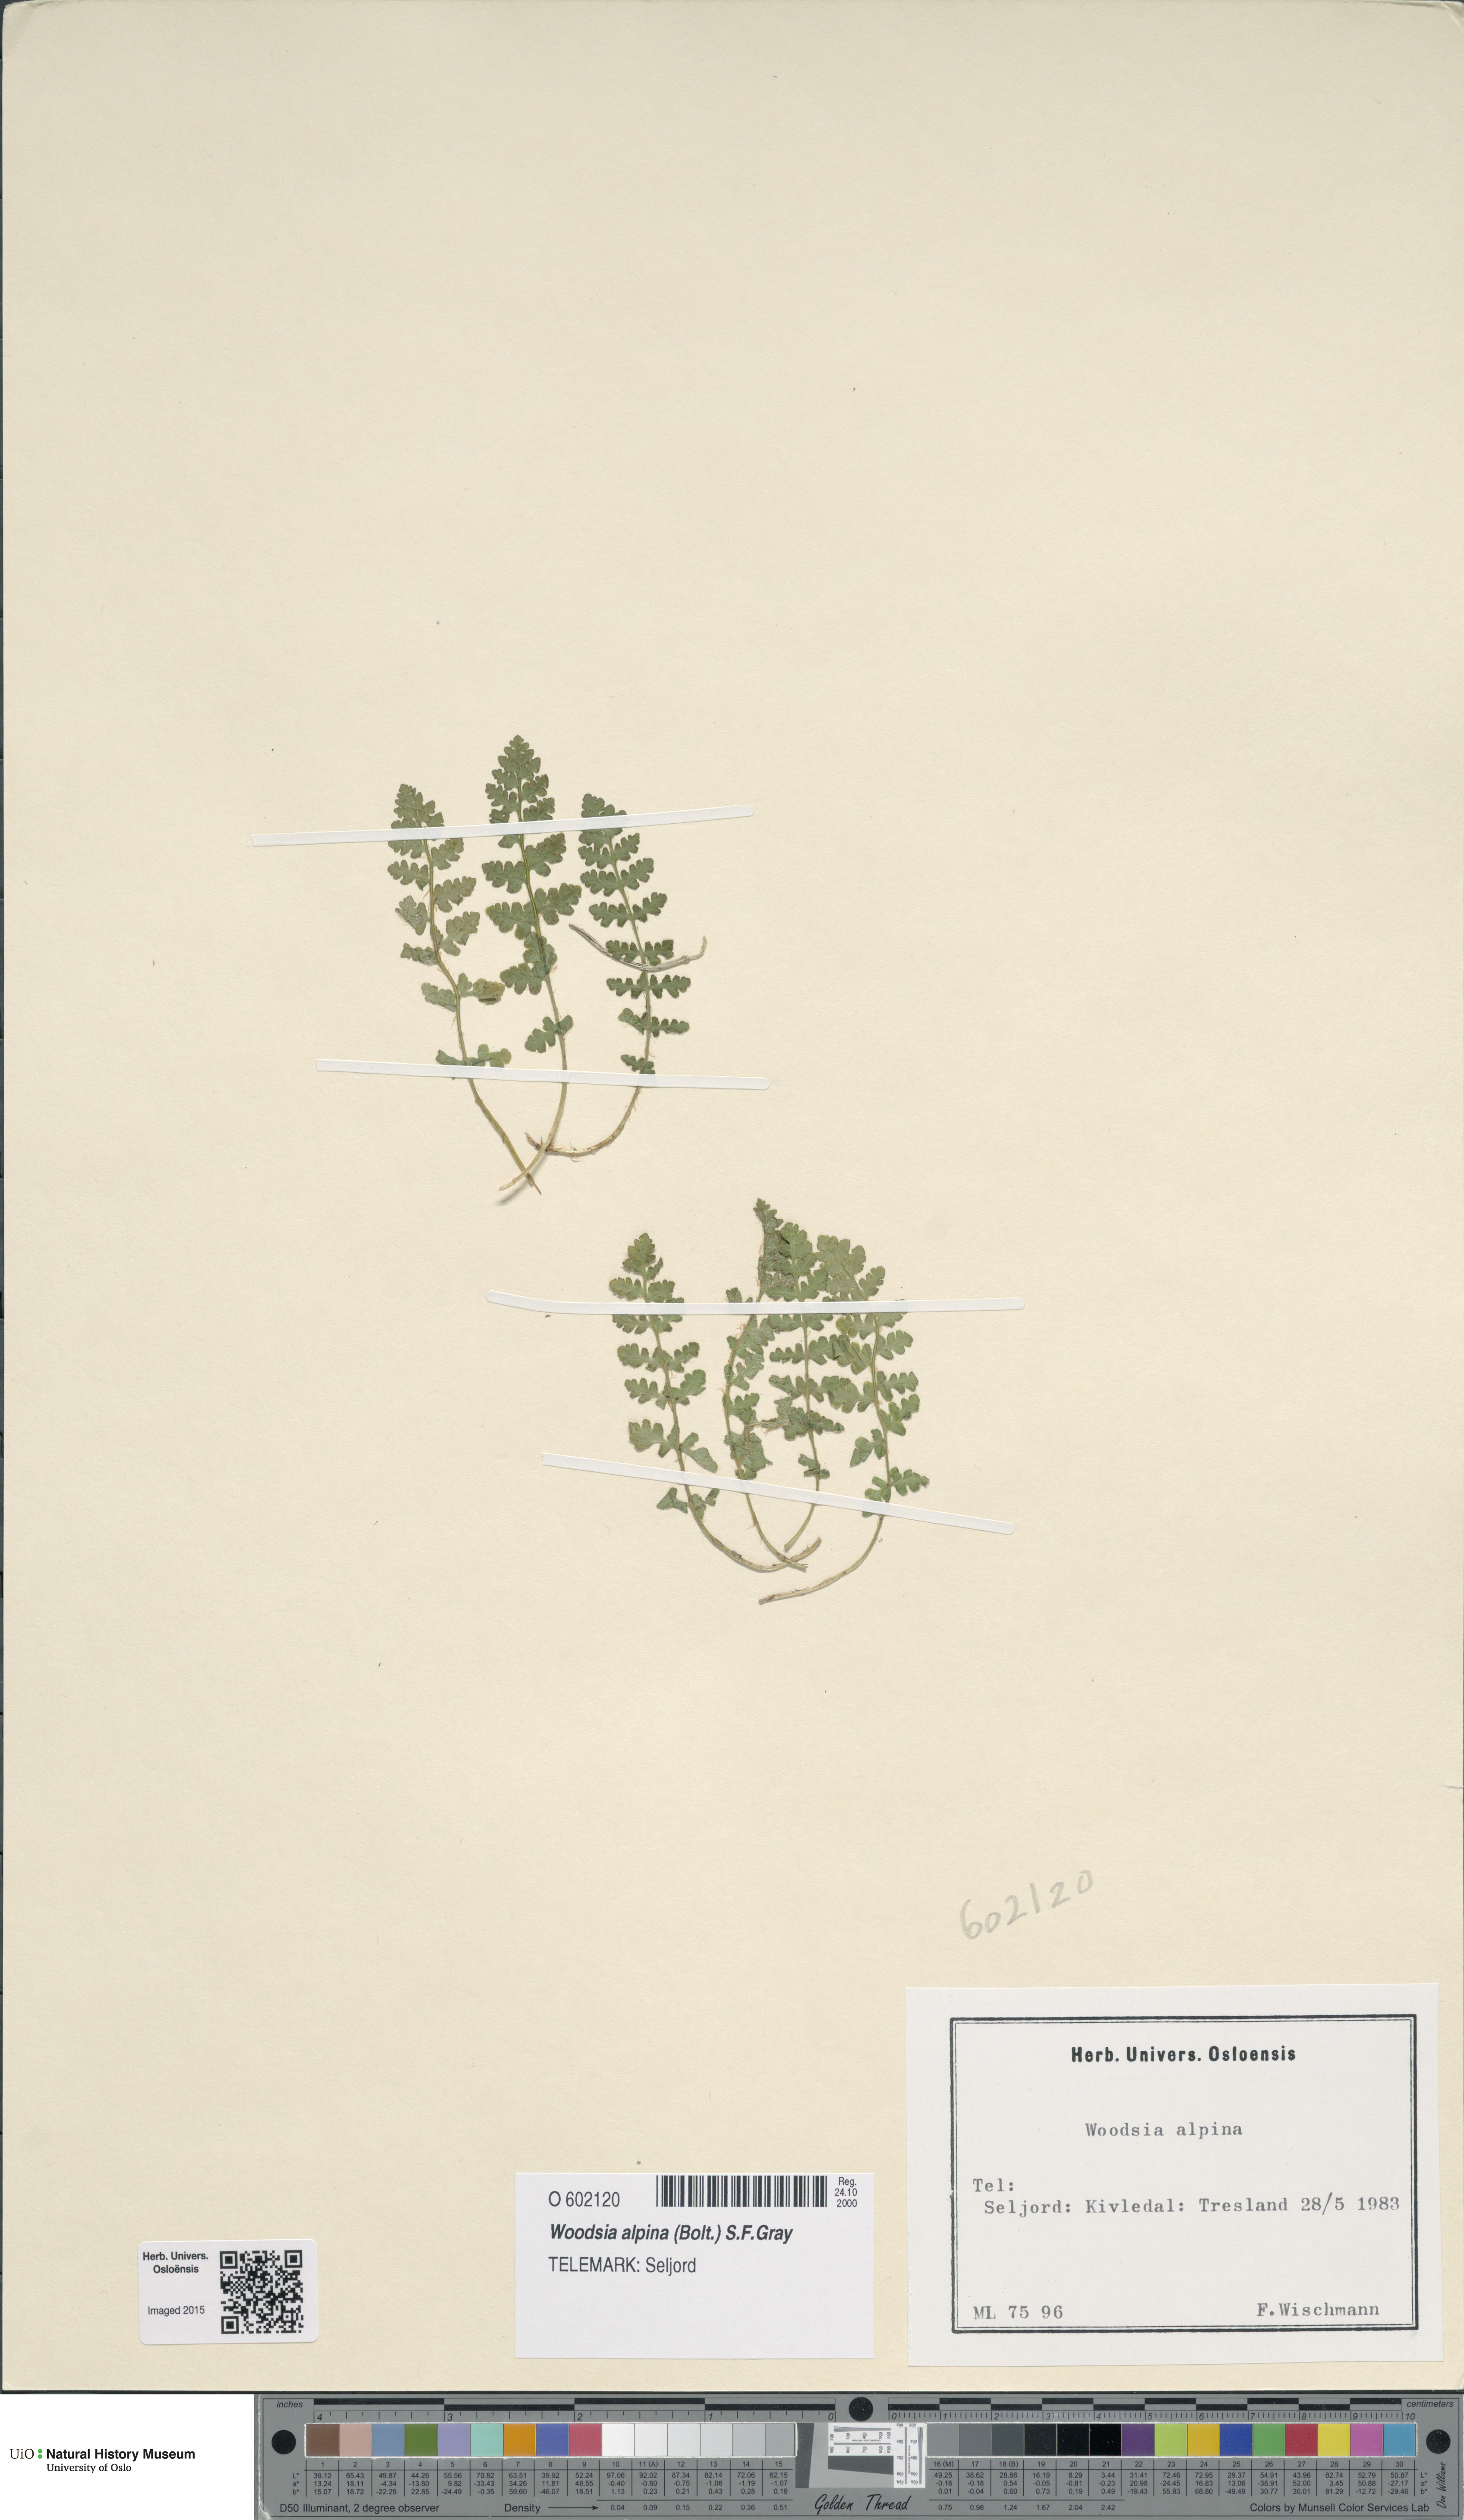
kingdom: Plantae
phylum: Tracheophyta
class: Polypodiopsida
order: Polypodiales
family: Woodsiaceae
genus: Woodsia
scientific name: Woodsia alpina
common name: Alpine woodsia
